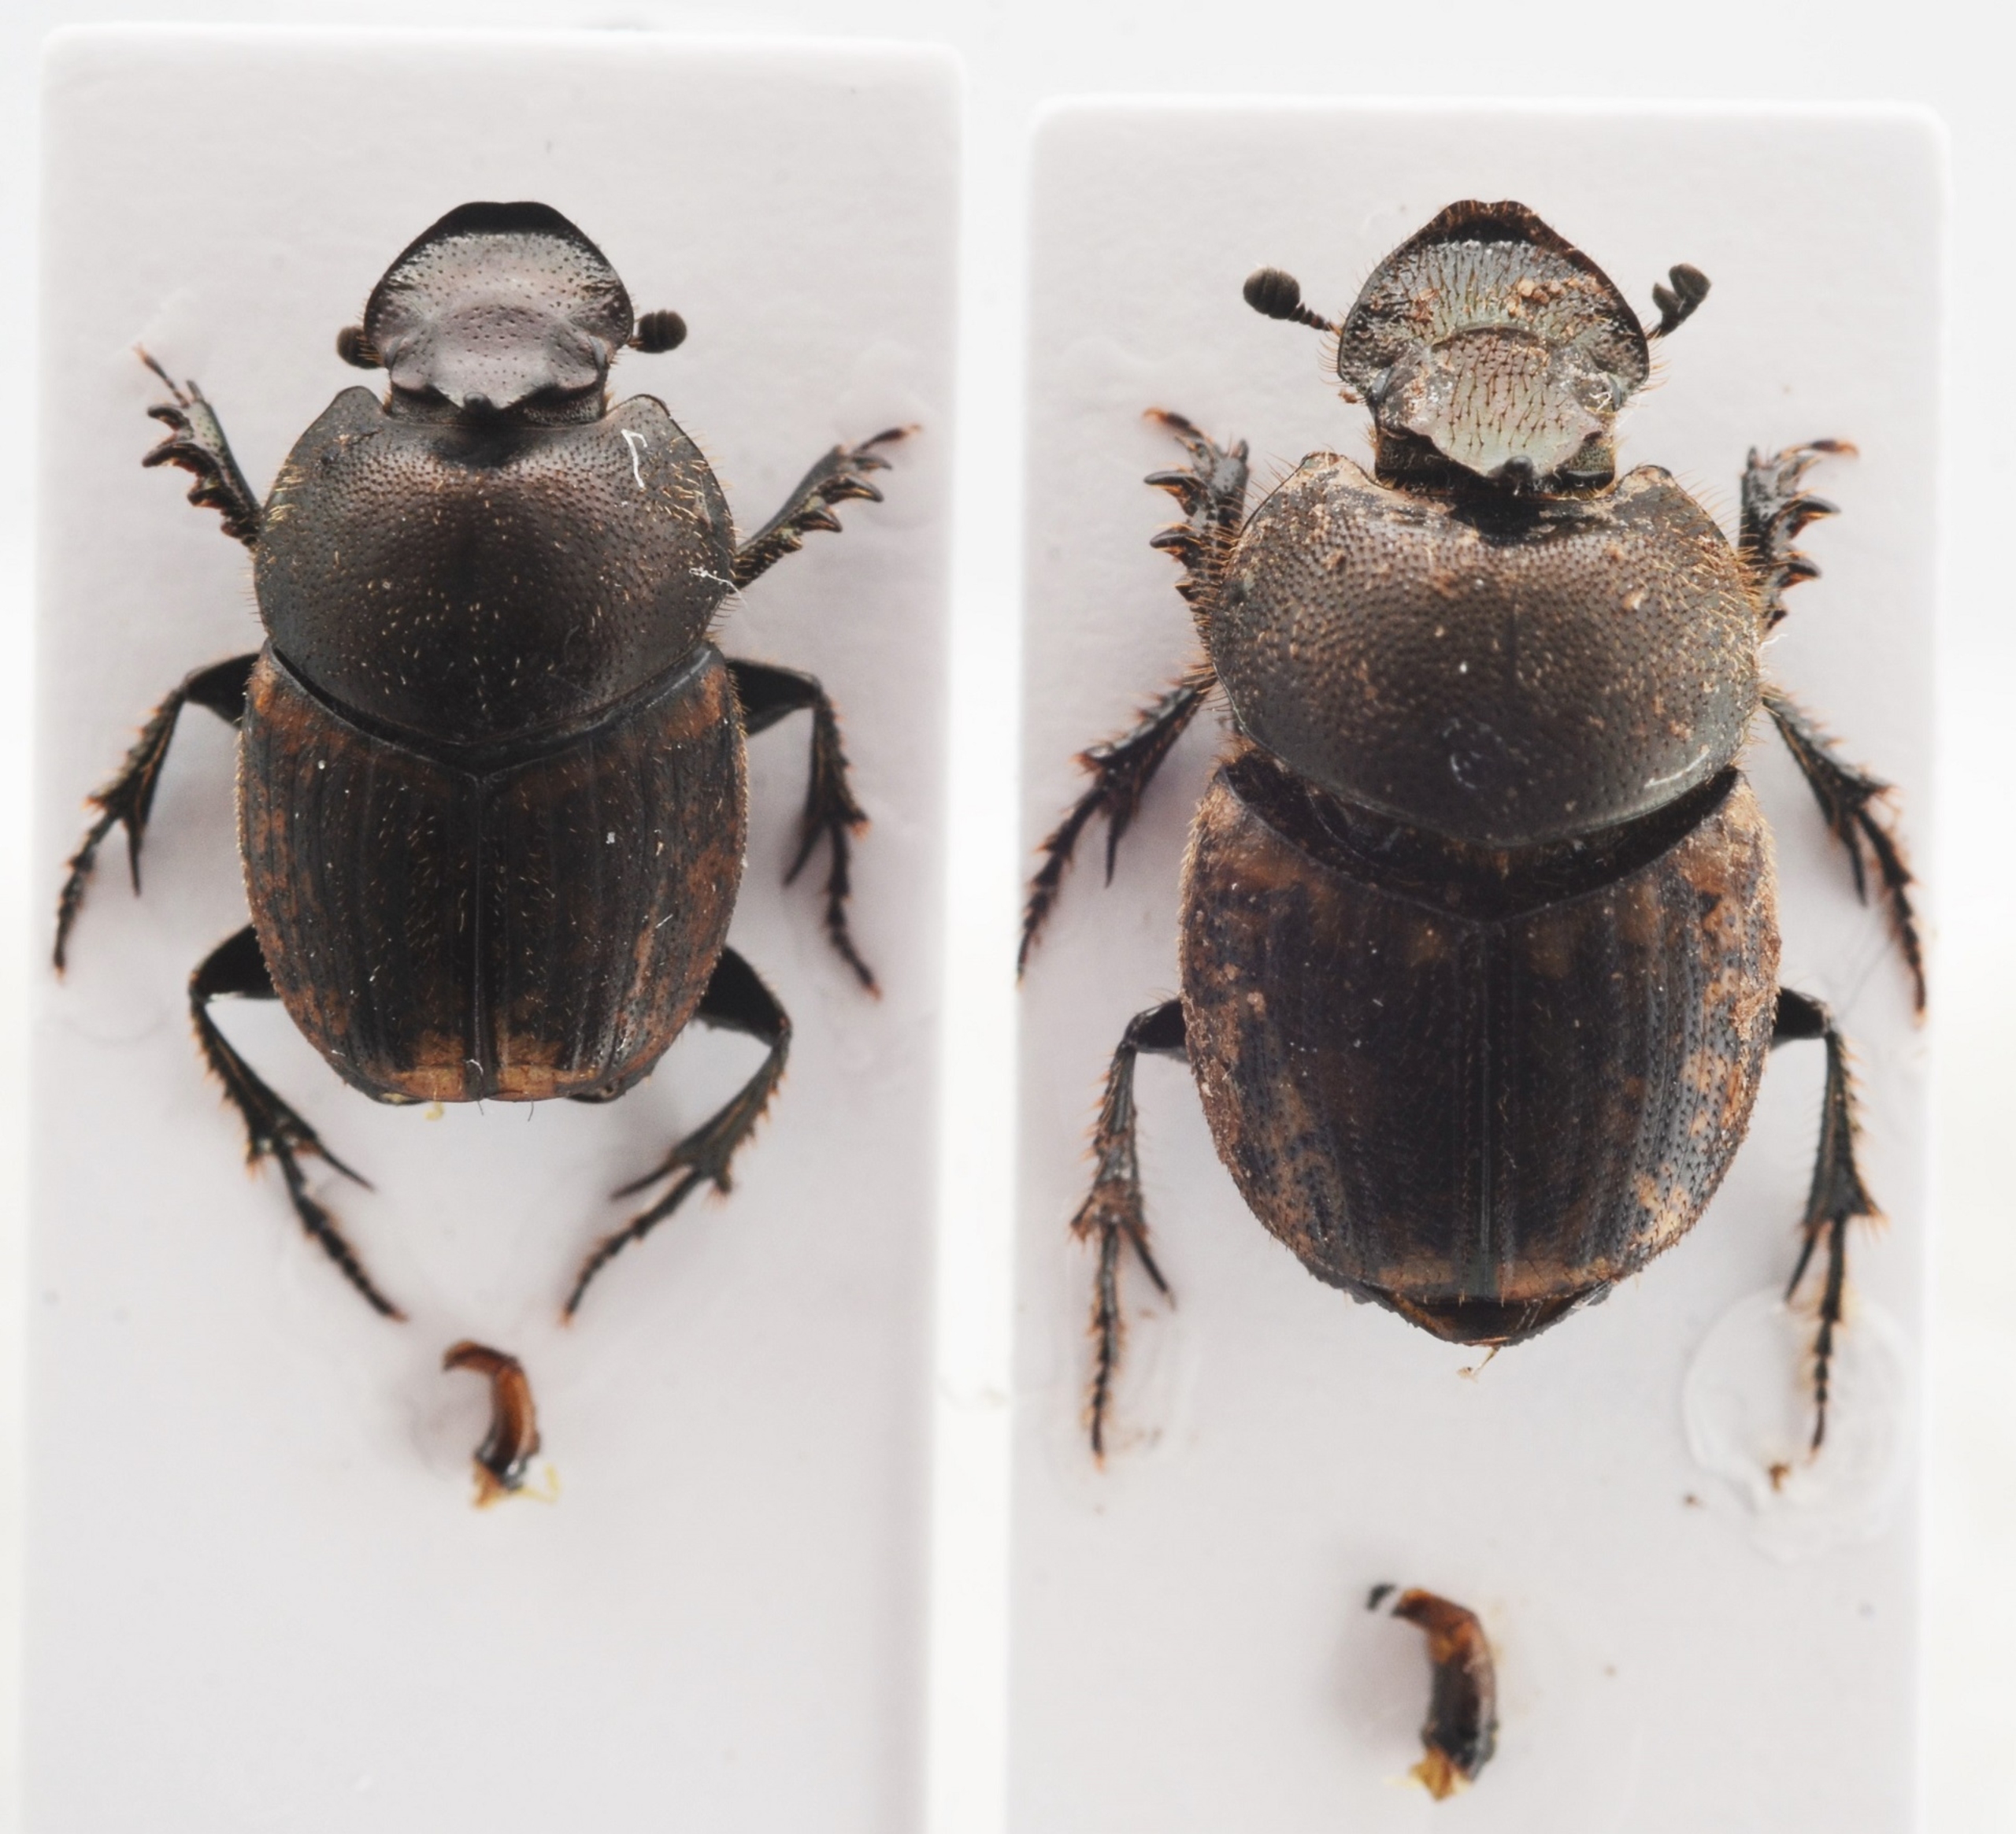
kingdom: Animalia
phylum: Arthropoda
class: Insecta
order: Coleoptera
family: Scarabaeidae
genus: Onthophagus
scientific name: Onthophagus fracticornis
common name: Stumphornet møggraver
